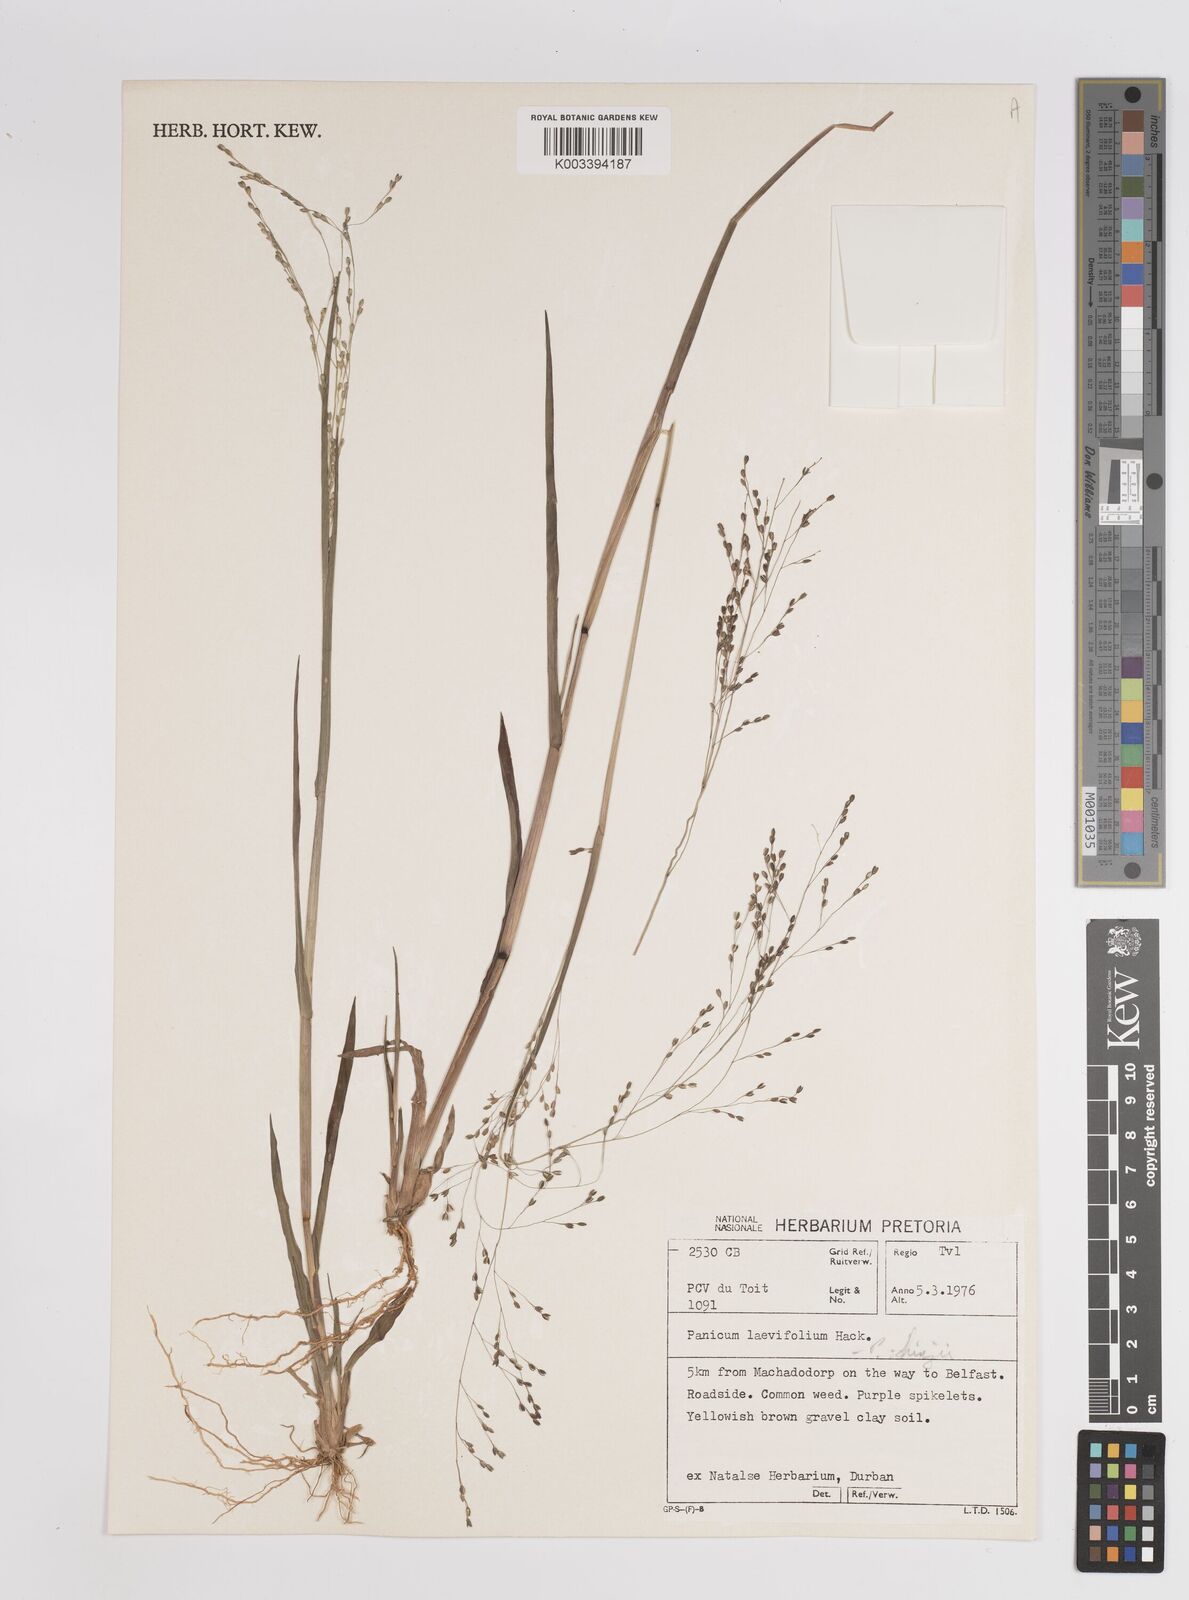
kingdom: Plantae
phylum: Tracheophyta
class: Liliopsida
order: Poales
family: Poaceae
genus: Panicum
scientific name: Panicum schinzii
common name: Sweet grass
